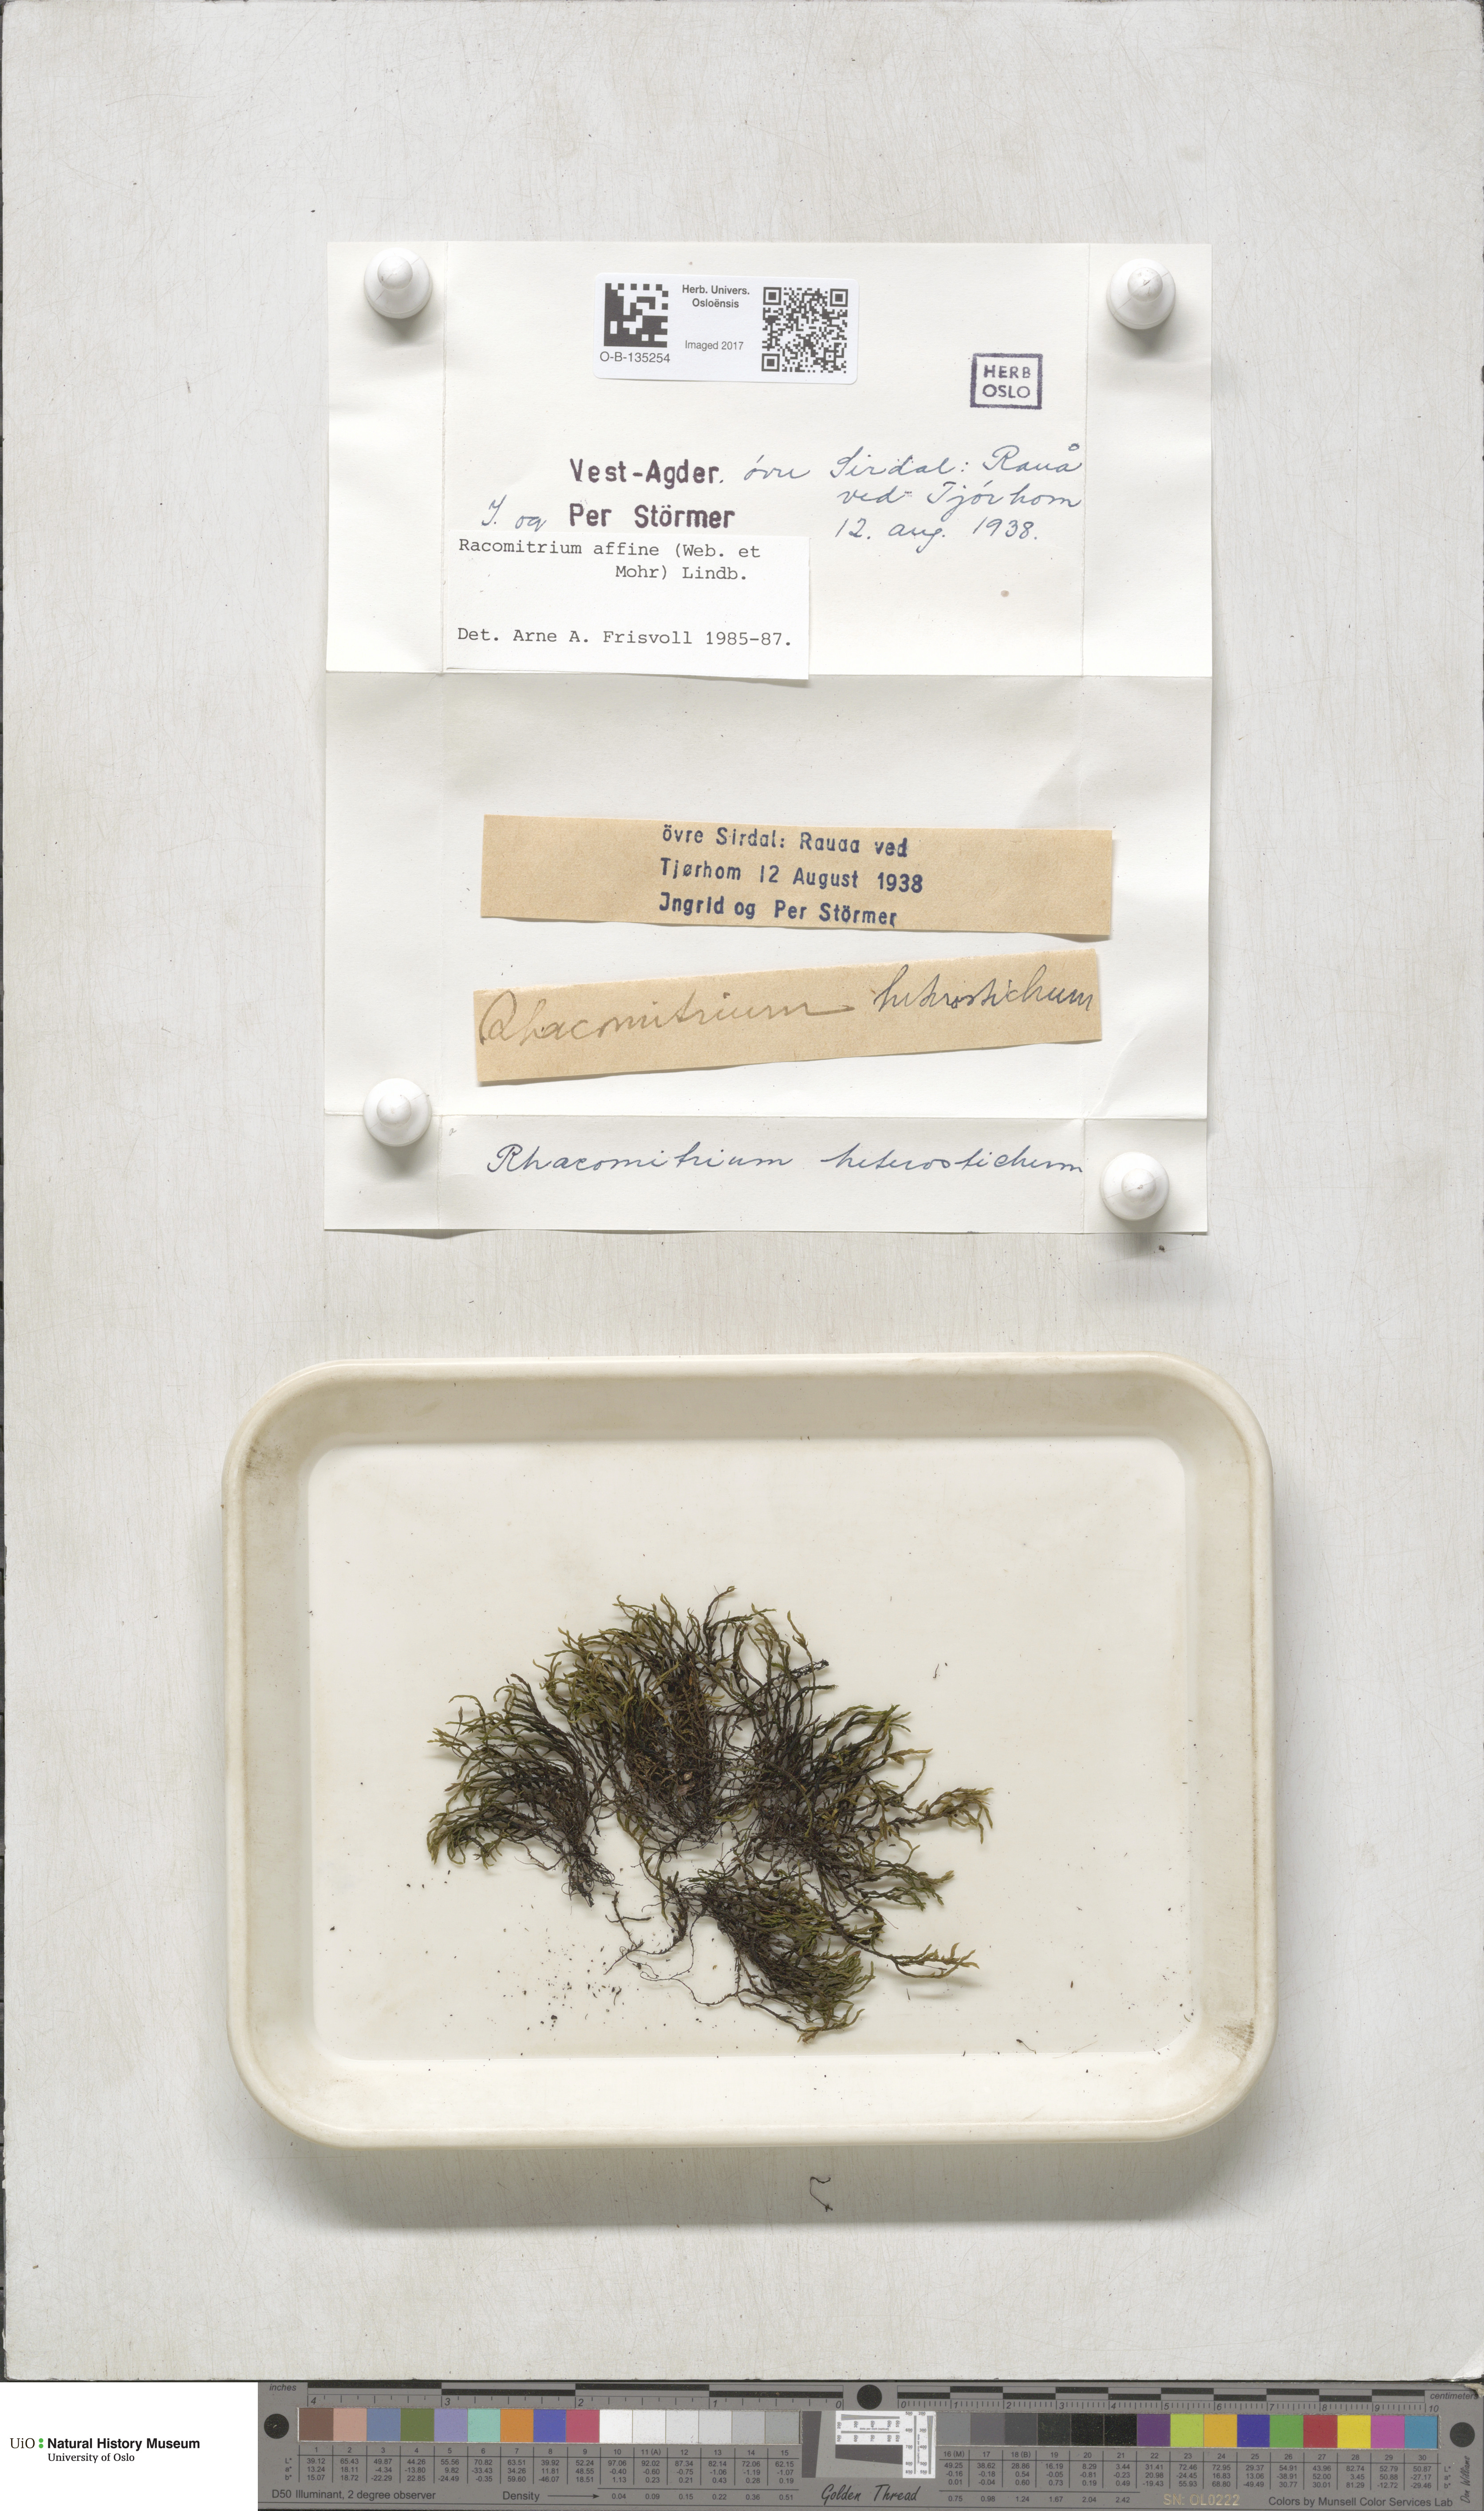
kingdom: Plantae
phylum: Bryophyta
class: Bryopsida
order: Grimmiales
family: Grimmiaceae
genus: Bucklandiella
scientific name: Bucklandiella affinis
